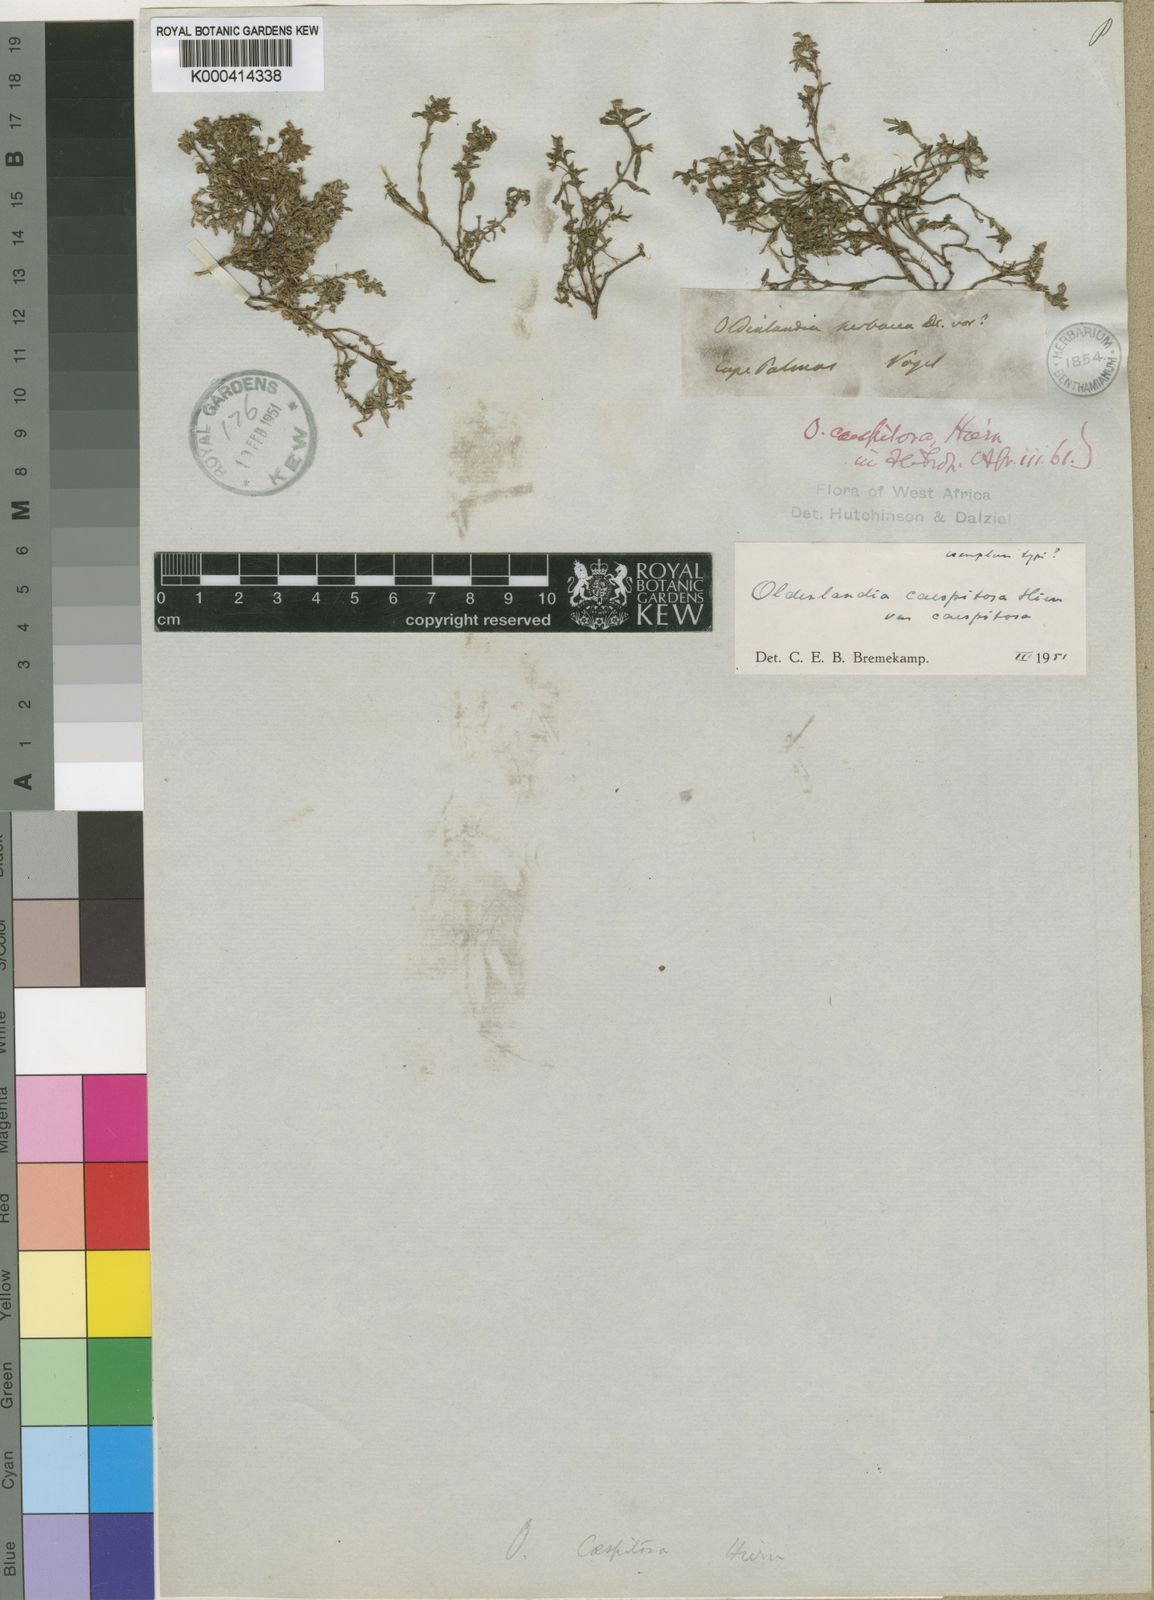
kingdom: Plantae
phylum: Tracheophyta
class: Magnoliopsida
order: Gentianales
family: Rubiaceae
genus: Oldenlandia
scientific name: Oldenlandia corymbosa
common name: Flat-top mille graines
